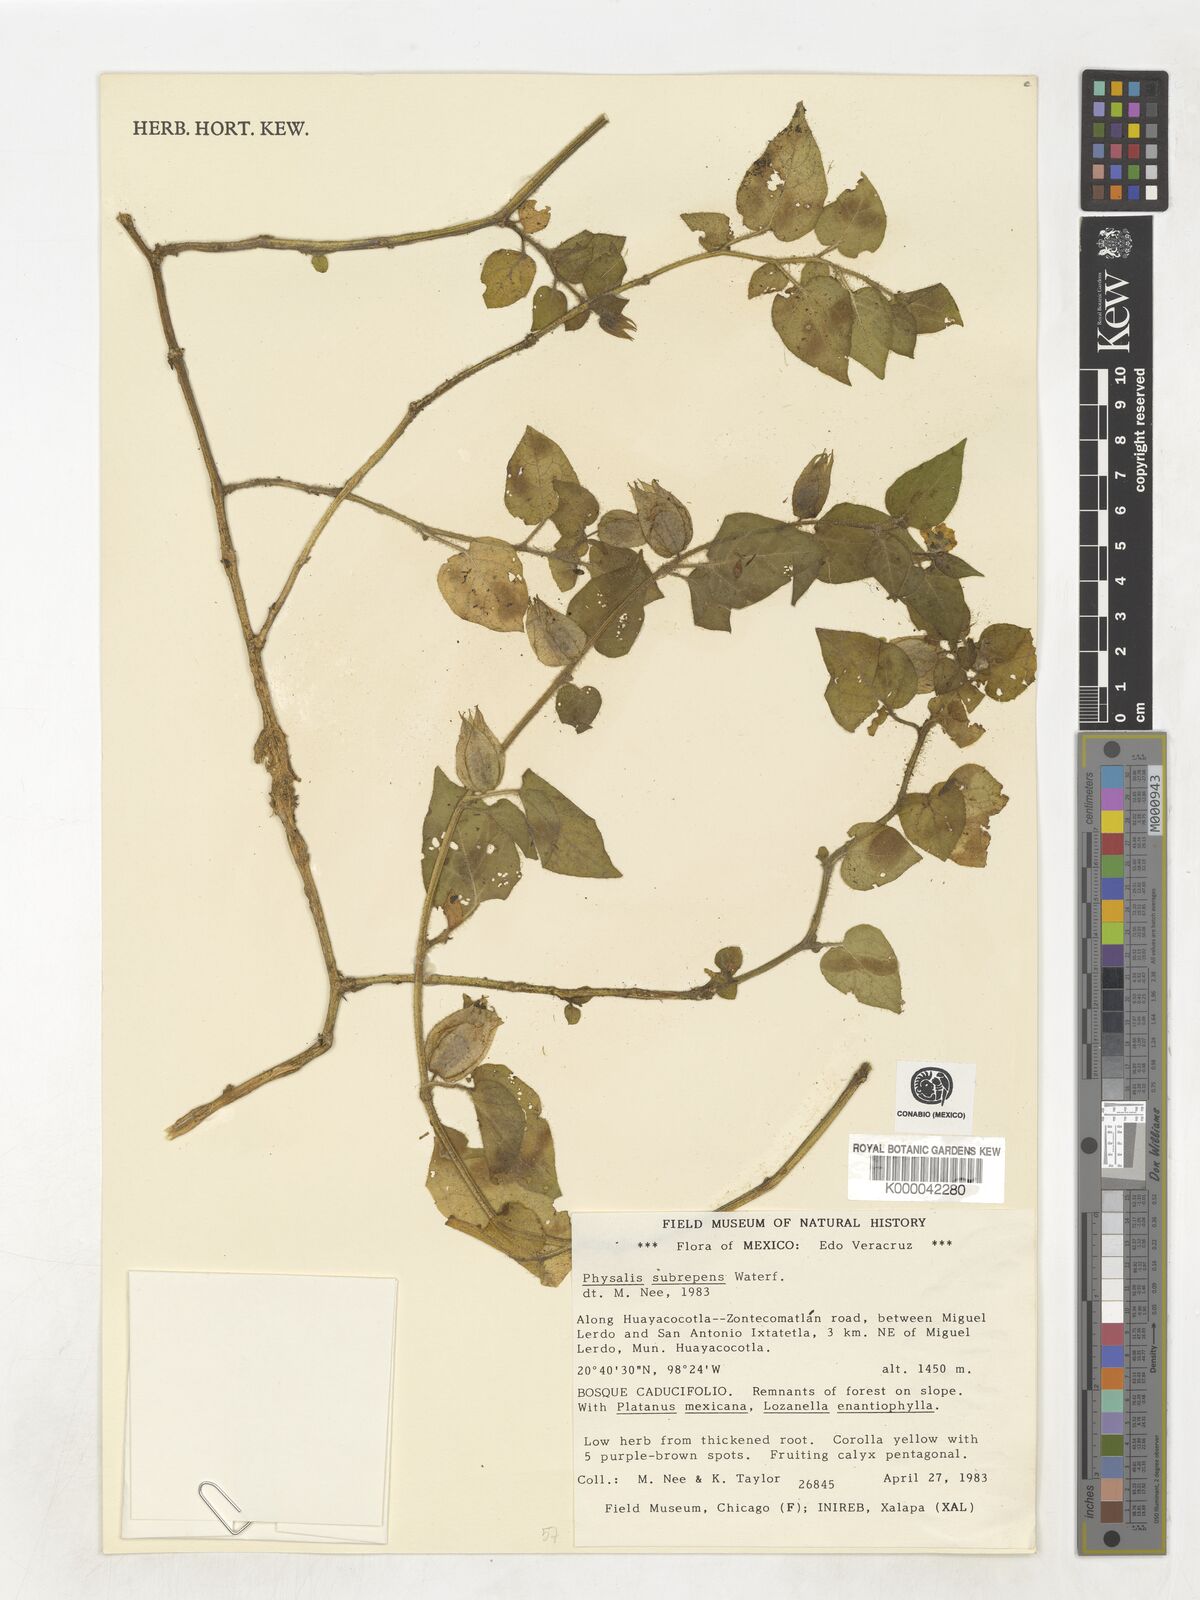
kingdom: Plantae
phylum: Tracheophyta
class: Magnoliopsida
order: Solanales
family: Solanaceae
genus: Physalis
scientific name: Physalis subrepens
